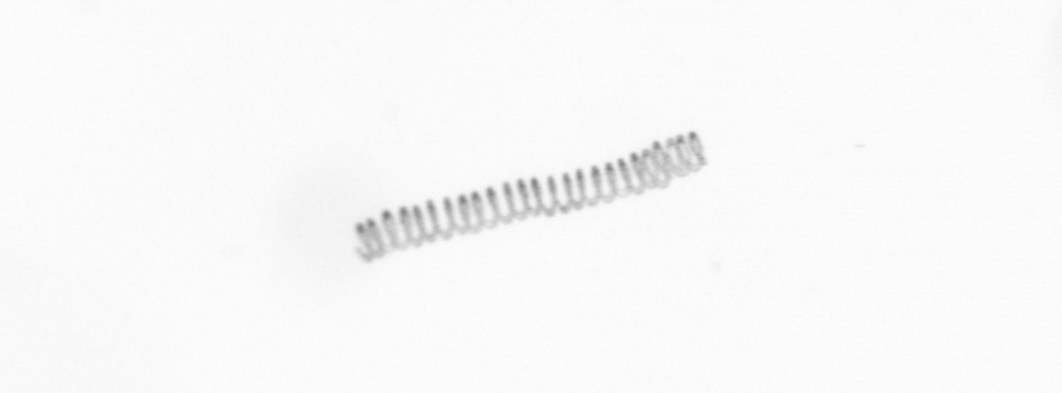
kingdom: Chromista
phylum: Ochrophyta
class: Bacillariophyceae
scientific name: Bacillariophyceae
